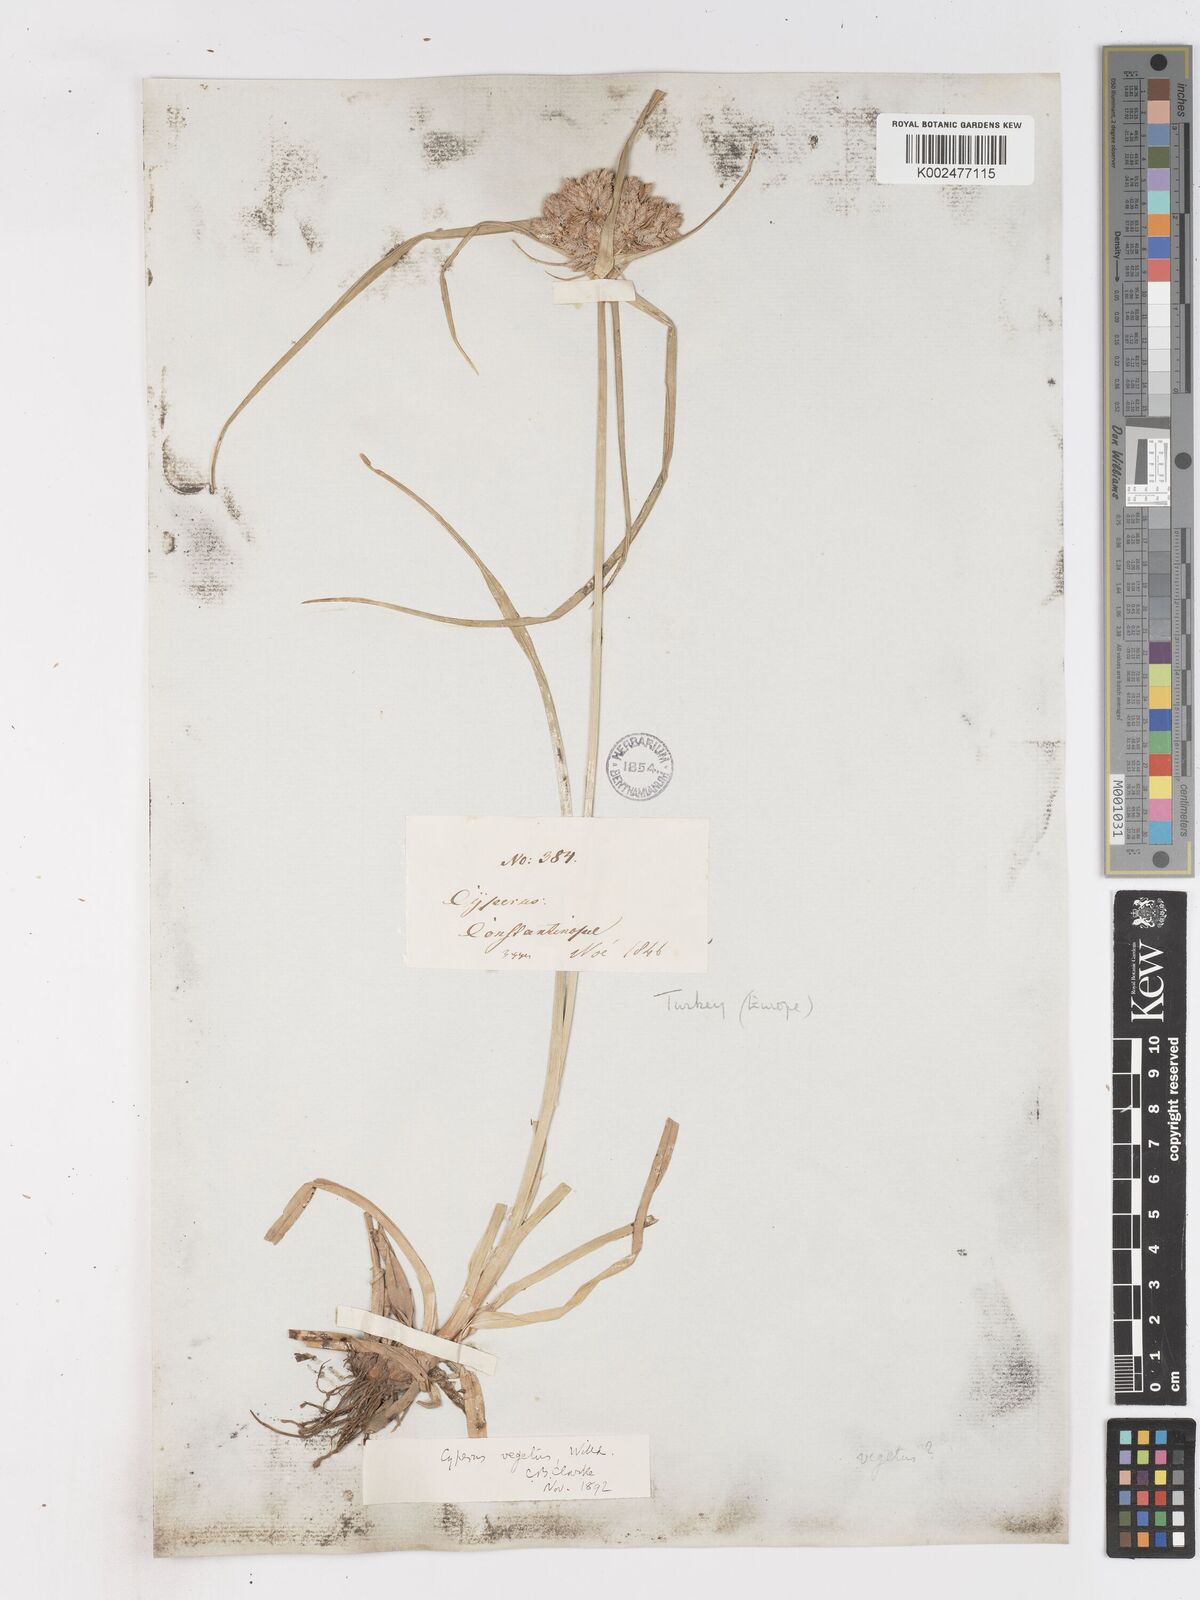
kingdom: Plantae
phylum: Tracheophyta
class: Liliopsida
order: Poales
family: Cyperaceae
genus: Cyperus
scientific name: Cyperus eragrostis
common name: Tall flatsedge
